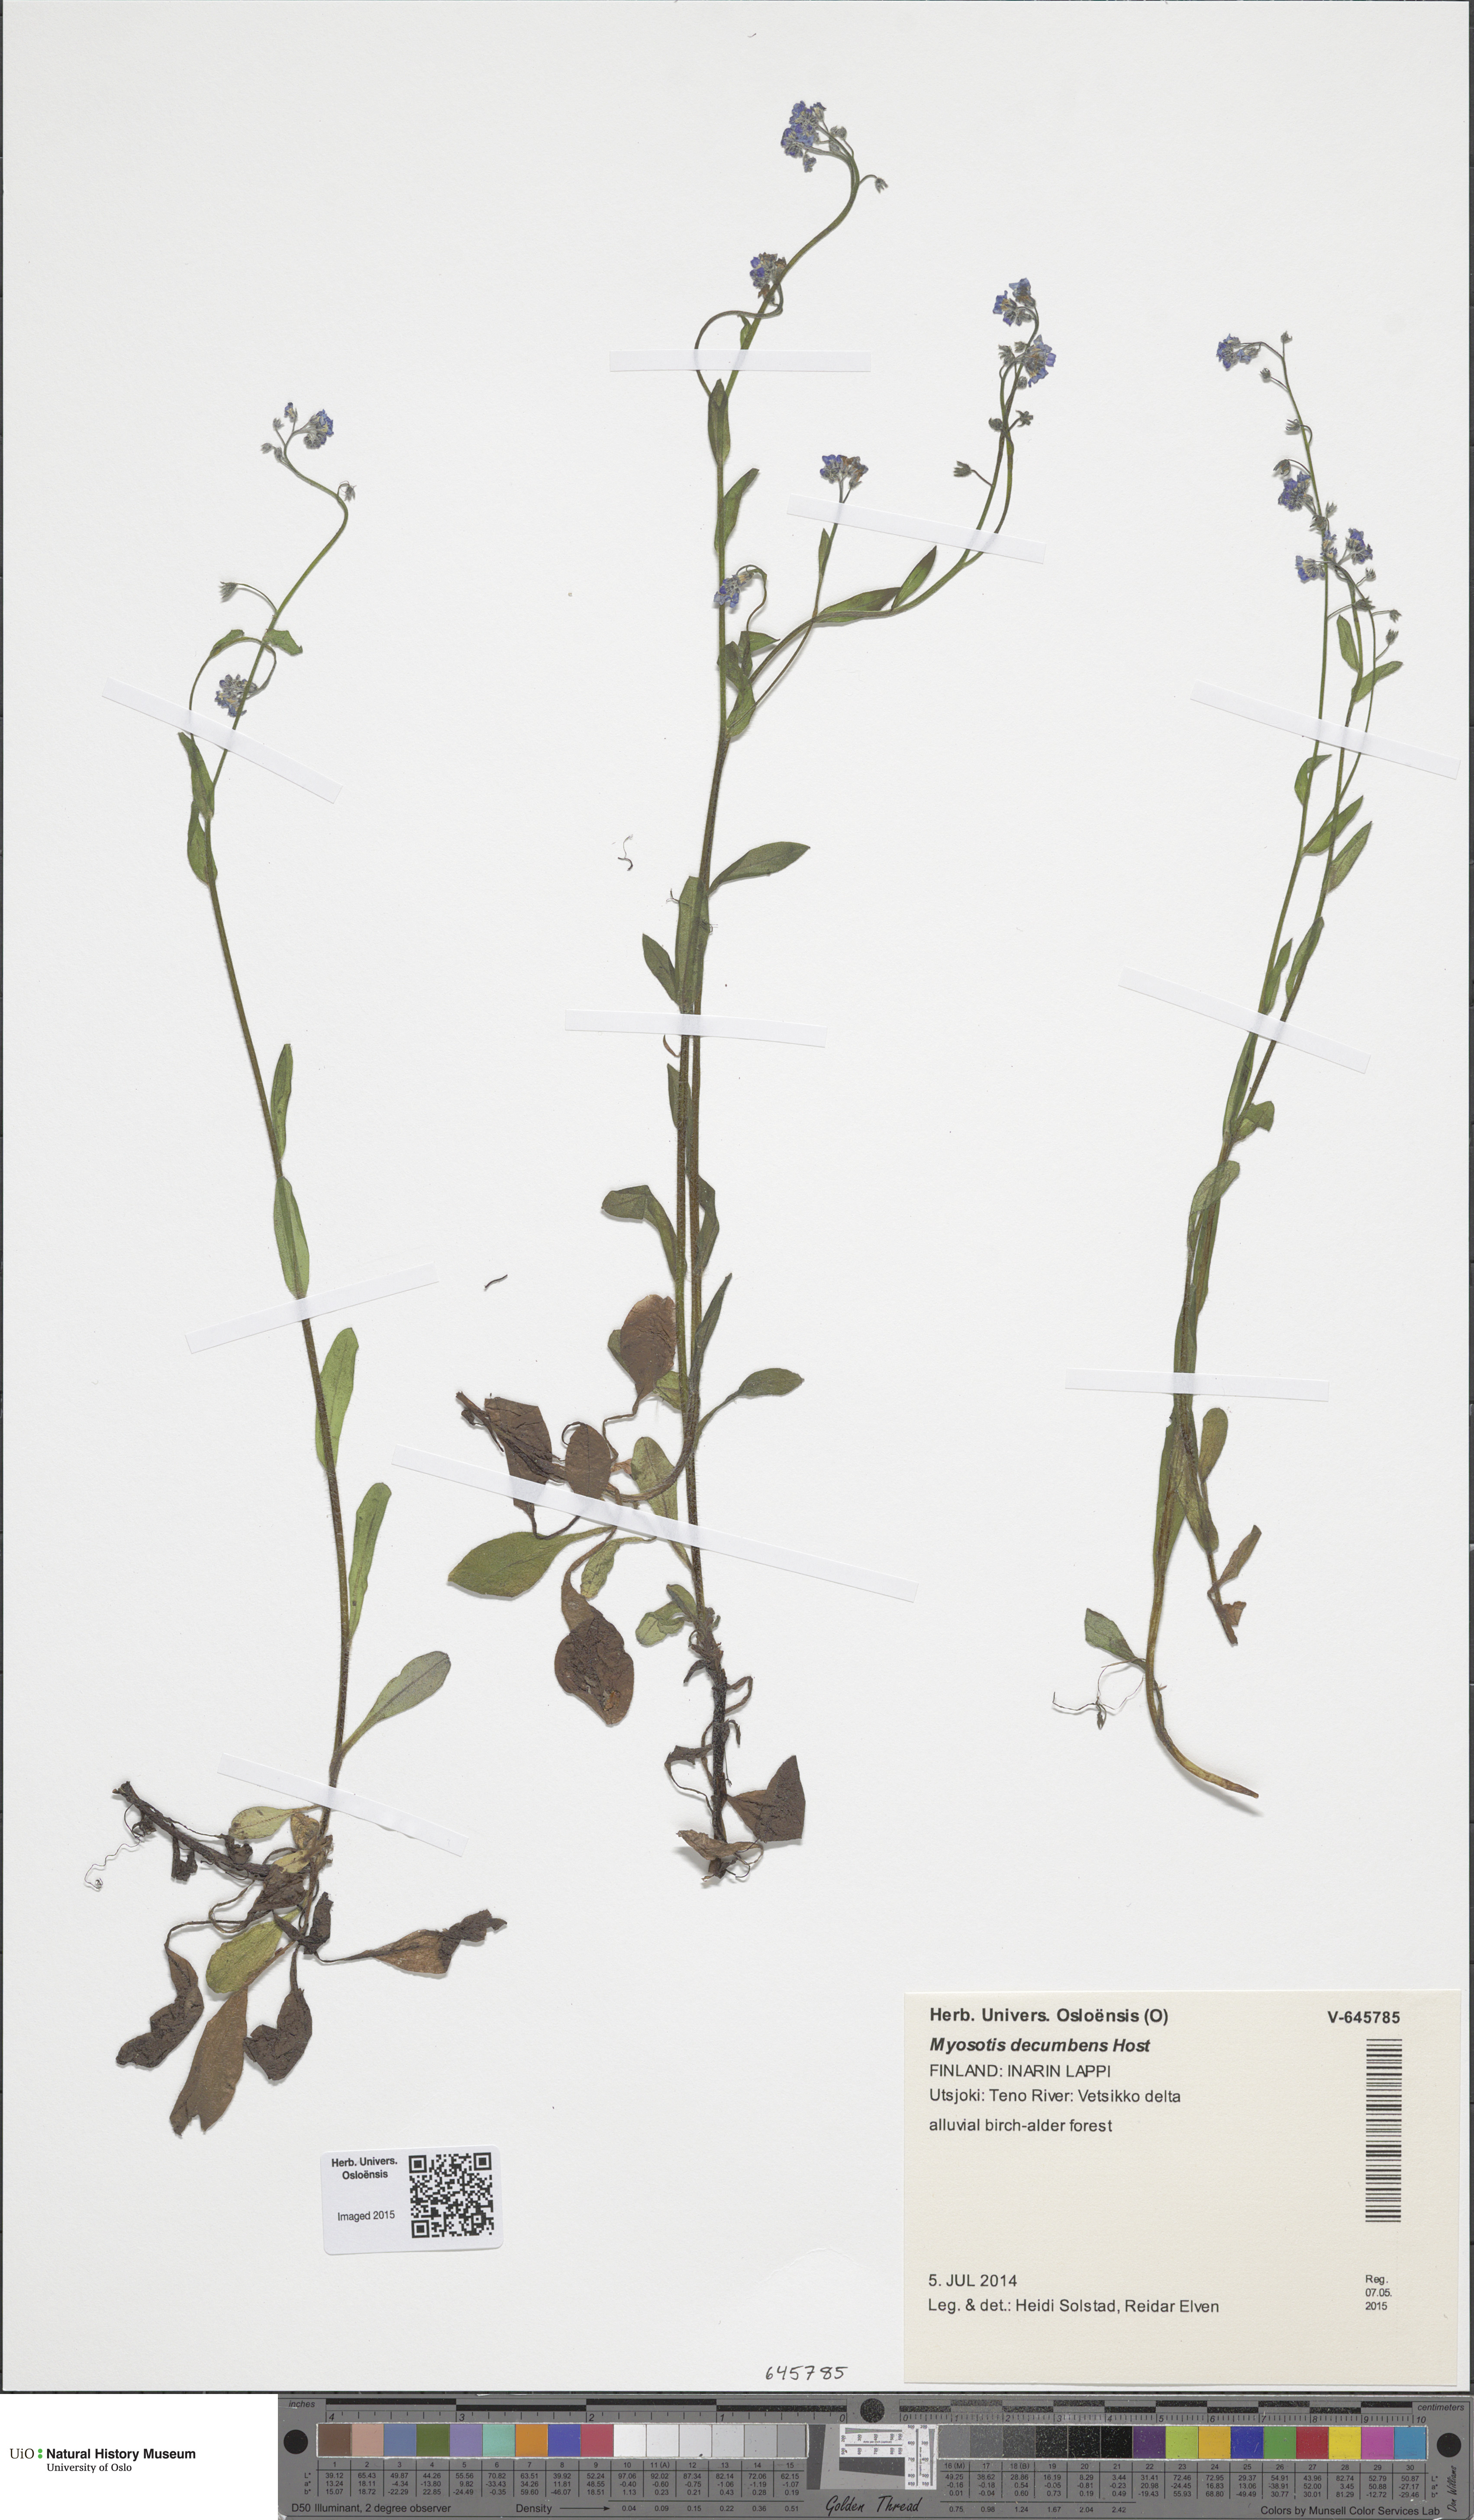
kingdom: Plantae
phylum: Tracheophyta
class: Magnoliopsida
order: Boraginales
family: Boraginaceae
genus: Myosotis
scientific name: Myosotis decumbens
